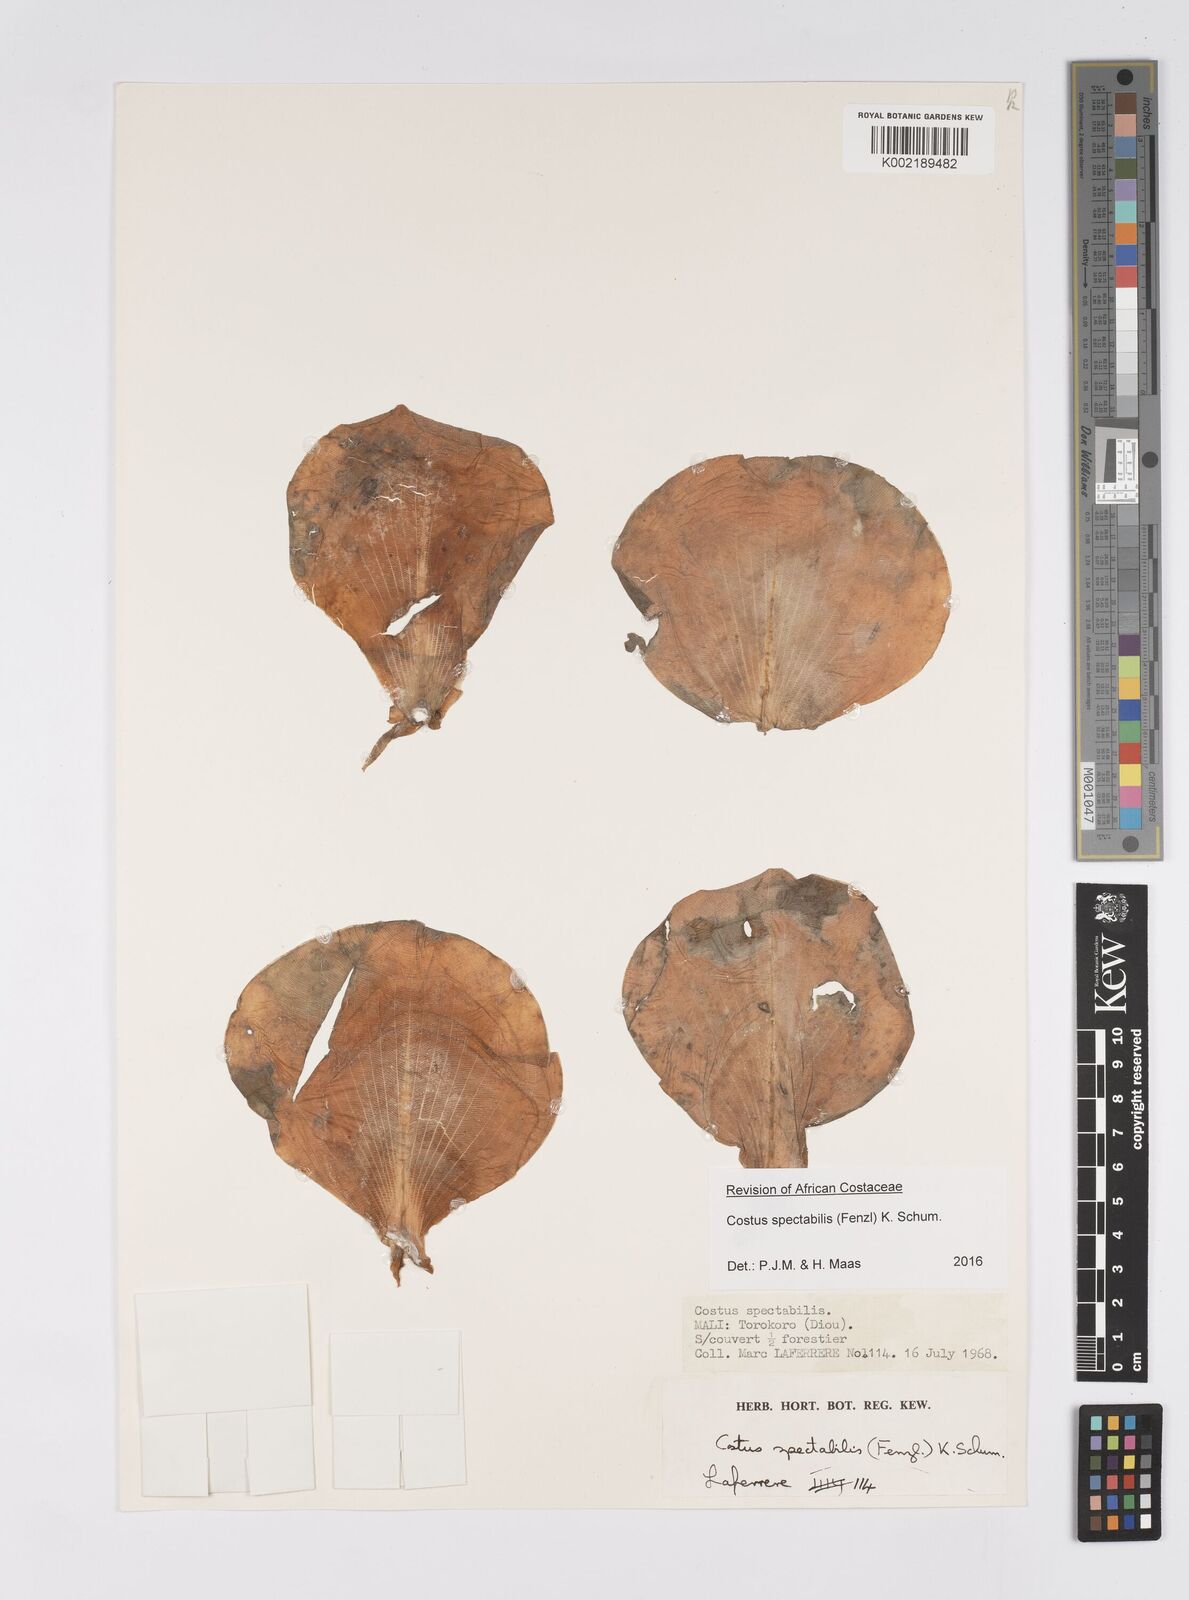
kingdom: Plantae
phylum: Tracheophyta
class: Liliopsida
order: Zingiberales
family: Costaceae
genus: Costus
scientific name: Costus spectabilis
